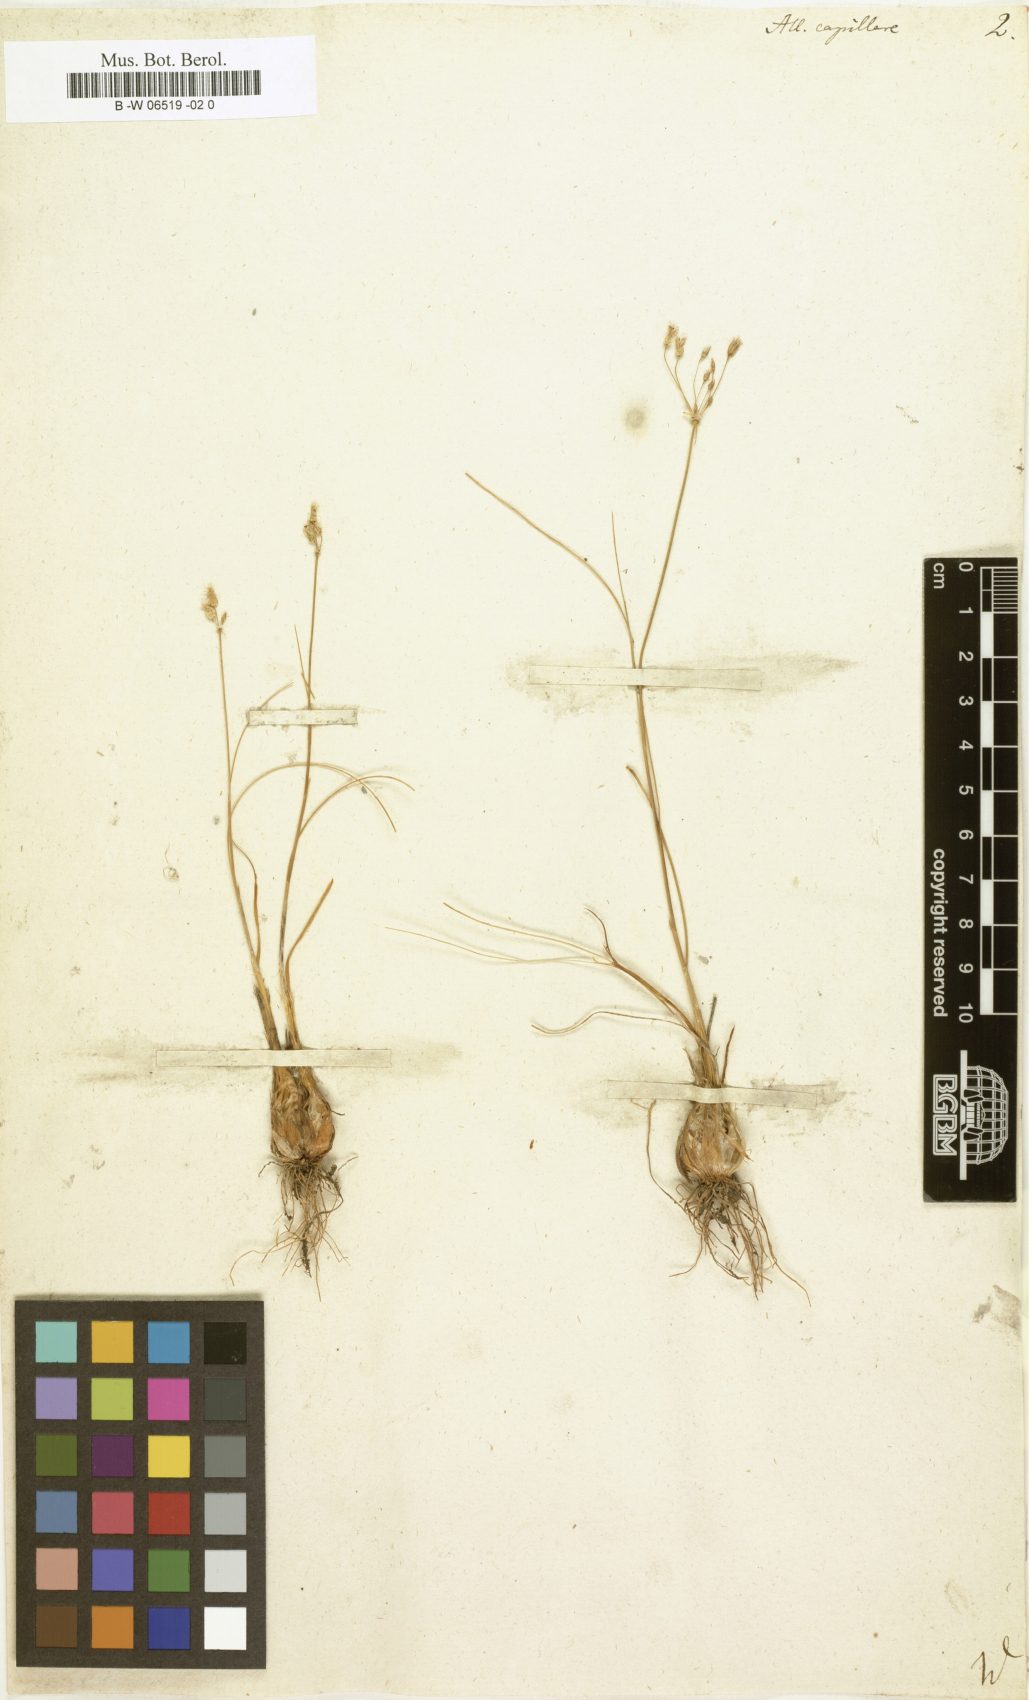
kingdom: Plantae
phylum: Tracheophyta
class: Liliopsida
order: Asparagales
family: Amaryllidaceae
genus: Allium
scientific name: Allium capillare
